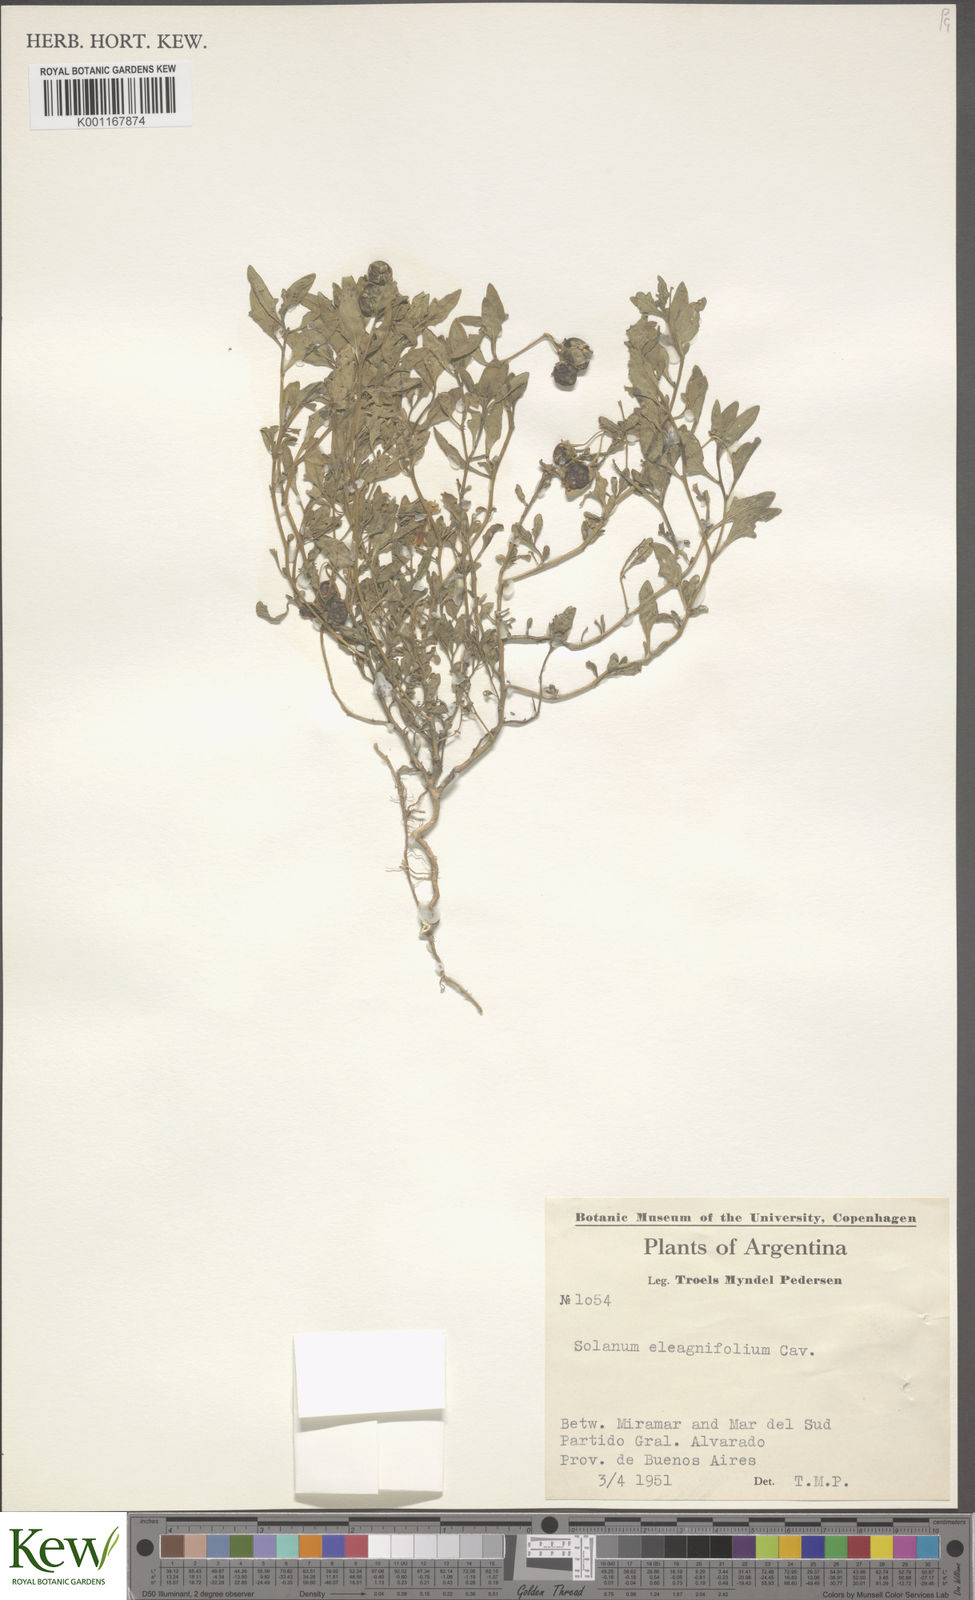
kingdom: Plantae
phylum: Tracheophyta
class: Magnoliopsida
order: Solanales
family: Solanaceae
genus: Solanum
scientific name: Solanum elaeagnifolium
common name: Silverleaf nightshade
